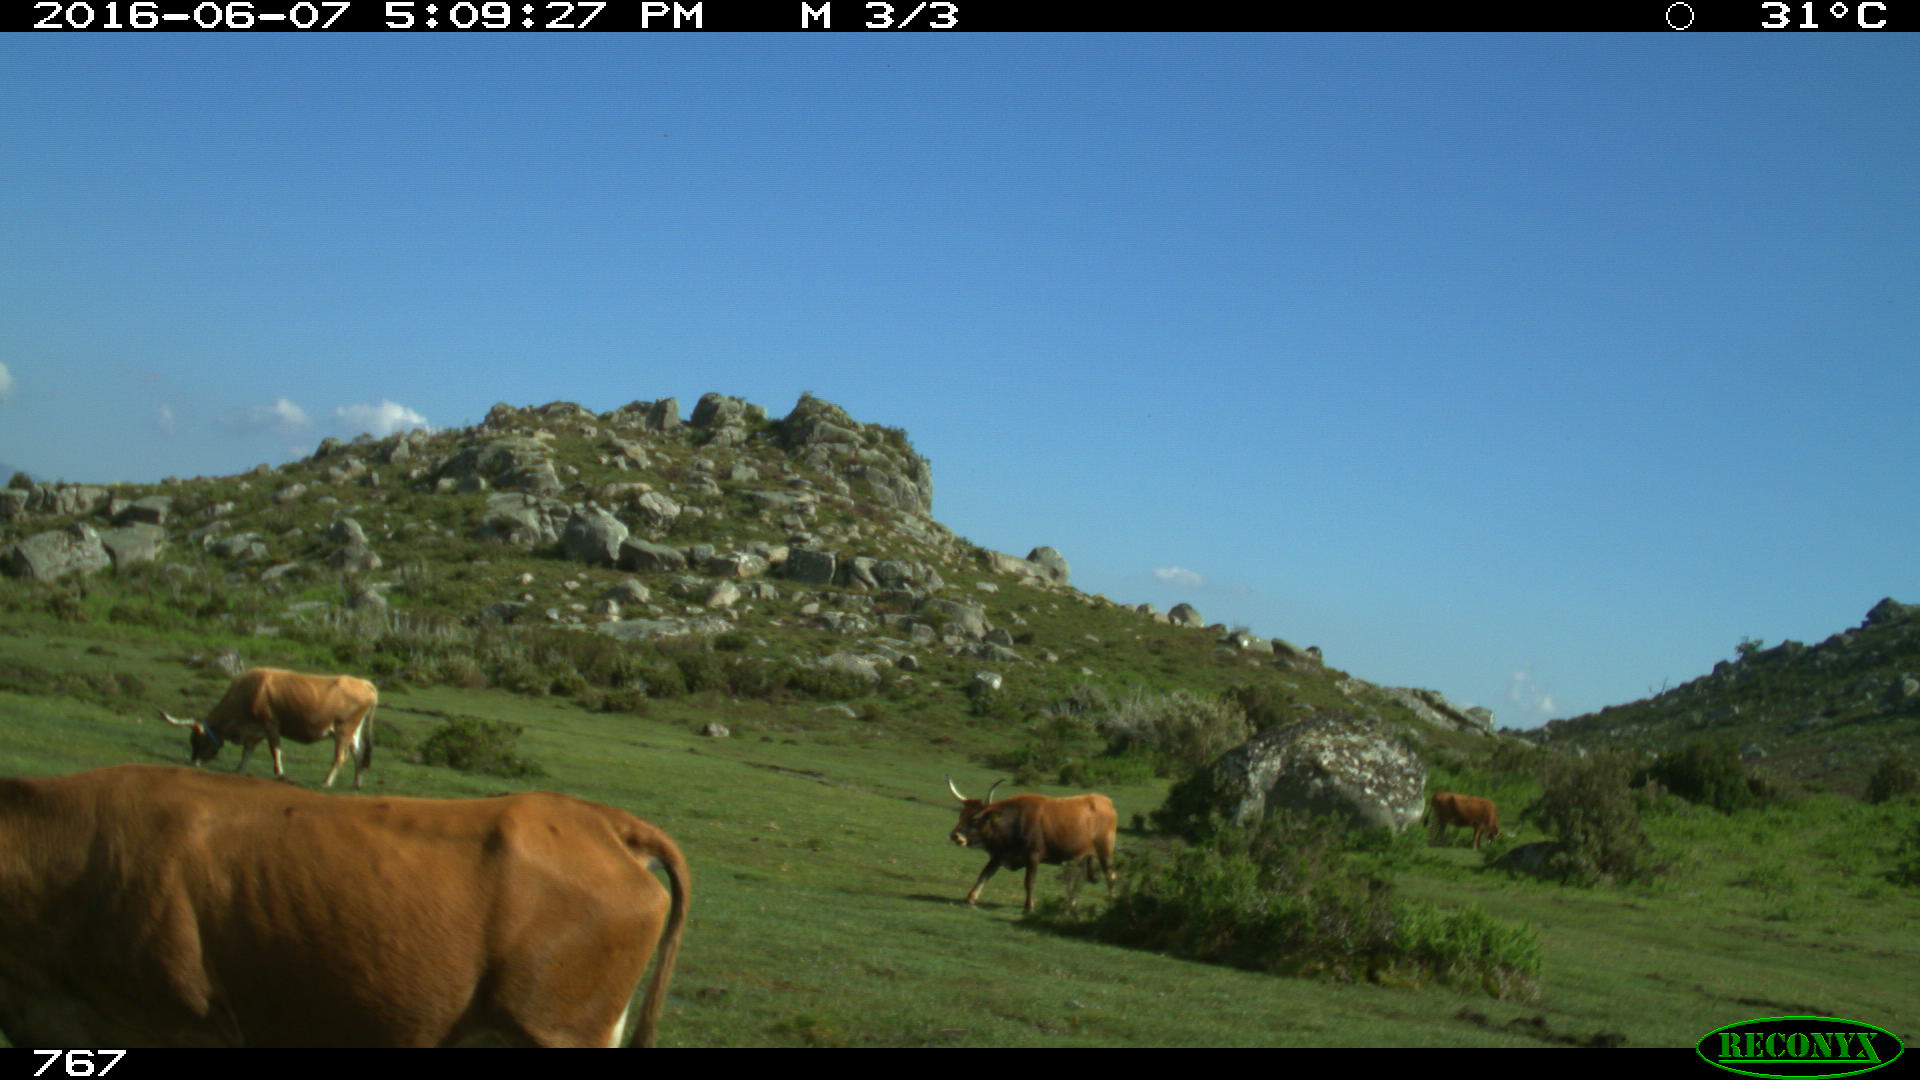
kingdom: Animalia
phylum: Chordata
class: Mammalia
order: Artiodactyla
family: Bovidae
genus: Bos
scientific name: Bos taurus
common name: Domesticated cattle
